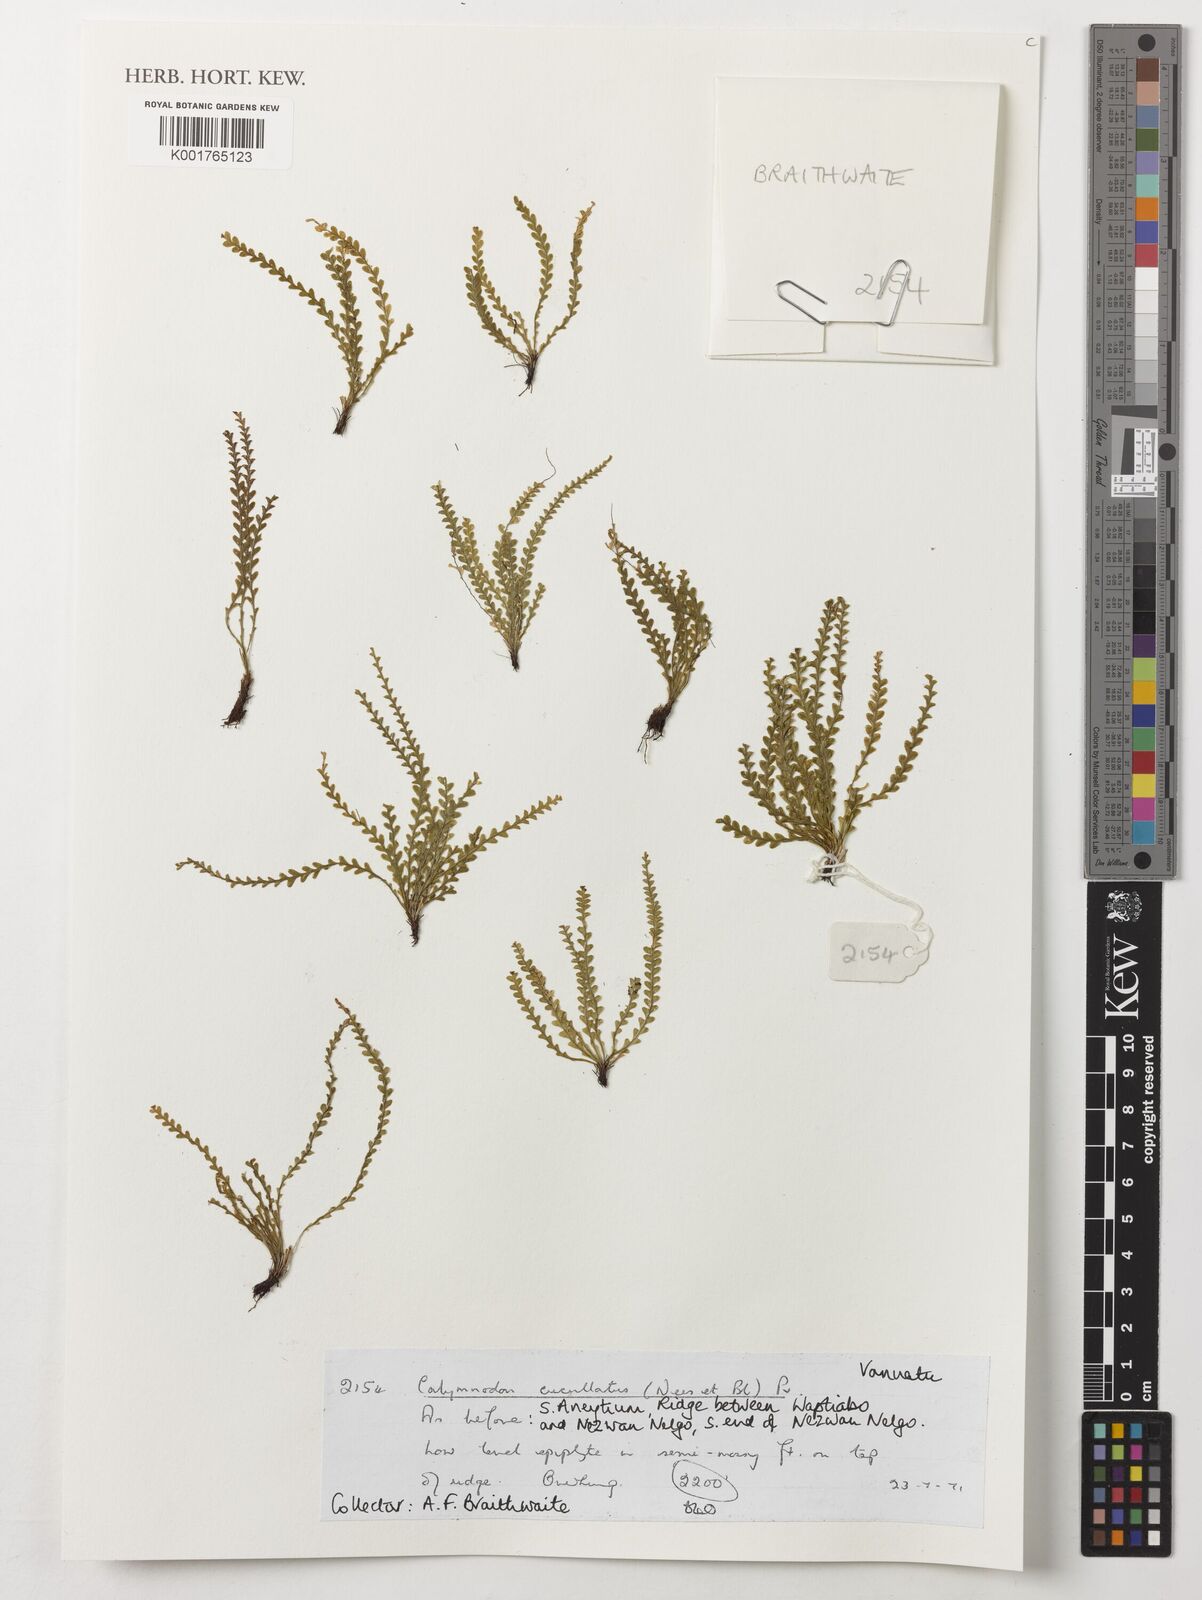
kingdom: Plantae
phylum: Tracheophyta
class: Polypodiopsida
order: Polypodiales
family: Polypodiaceae
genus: Calymmodon
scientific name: Calymmodon cucullatus
